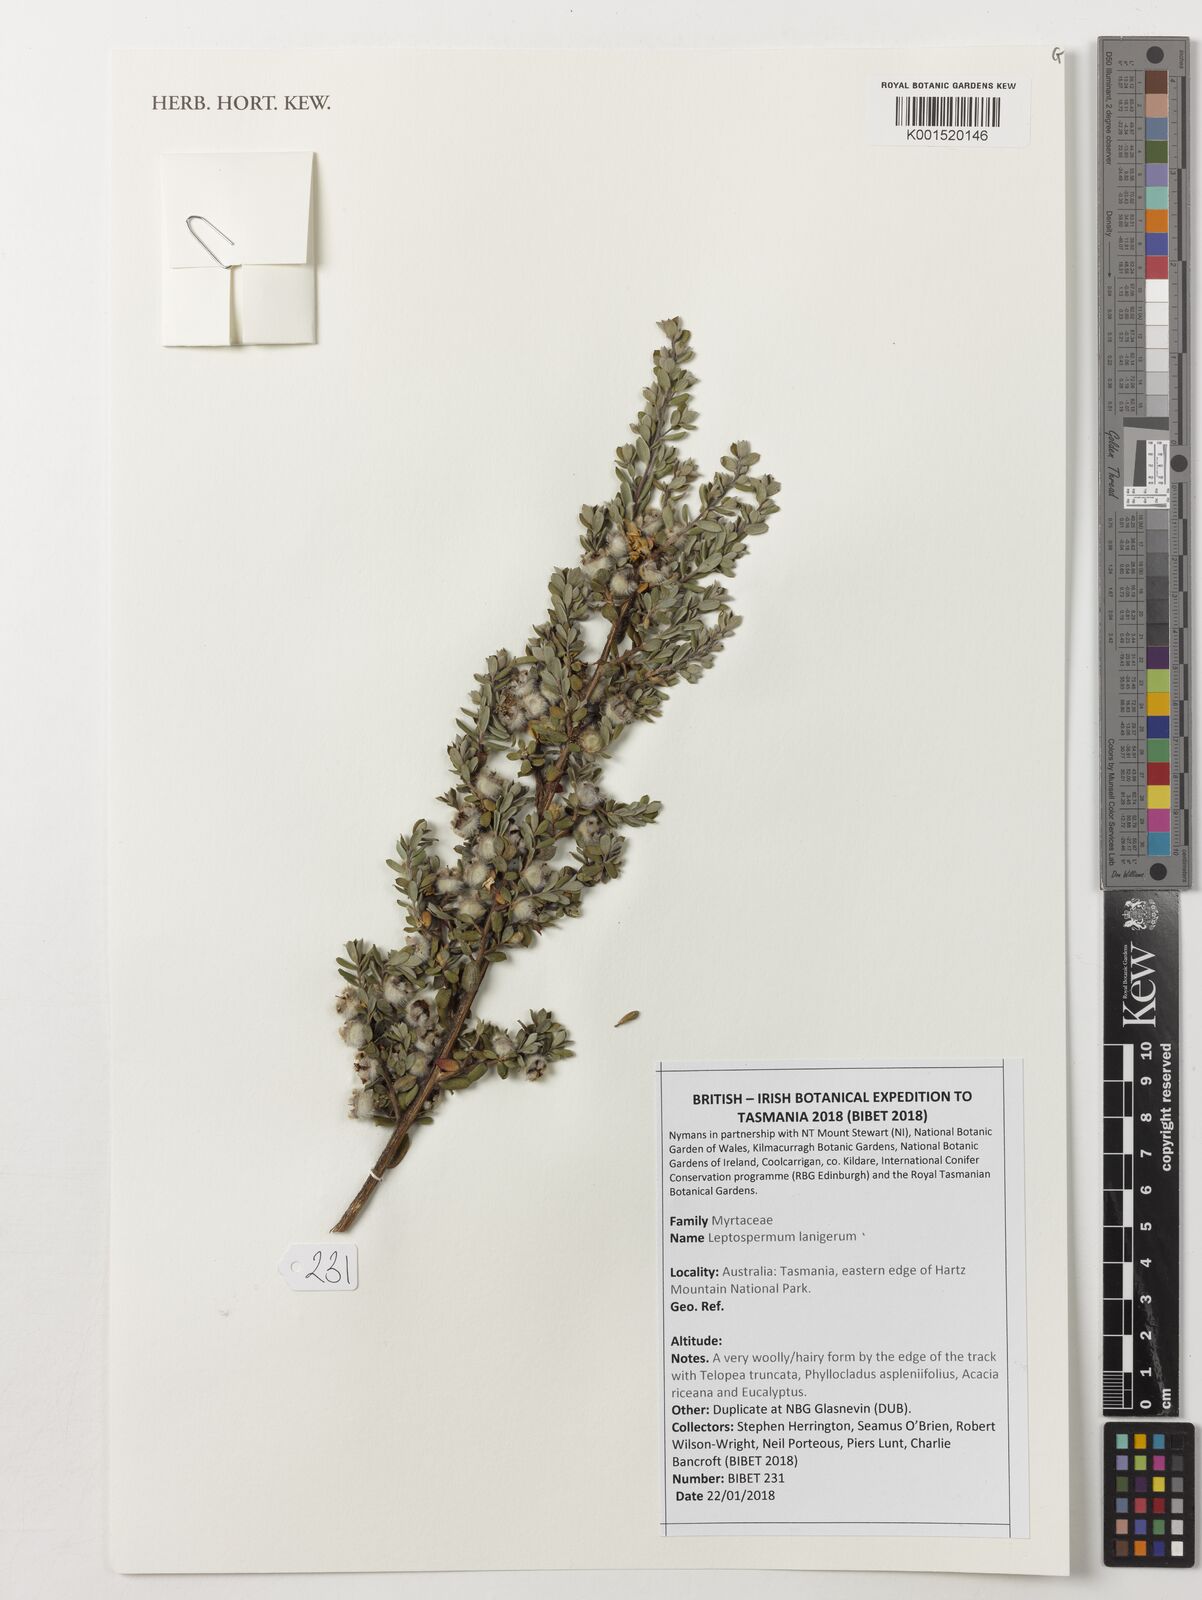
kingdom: Plantae
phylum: Tracheophyta
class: Magnoliopsida
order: Myrtales
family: Myrtaceae
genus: Leptospermum
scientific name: Leptospermum lanigerum
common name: Woolly tea-tree
